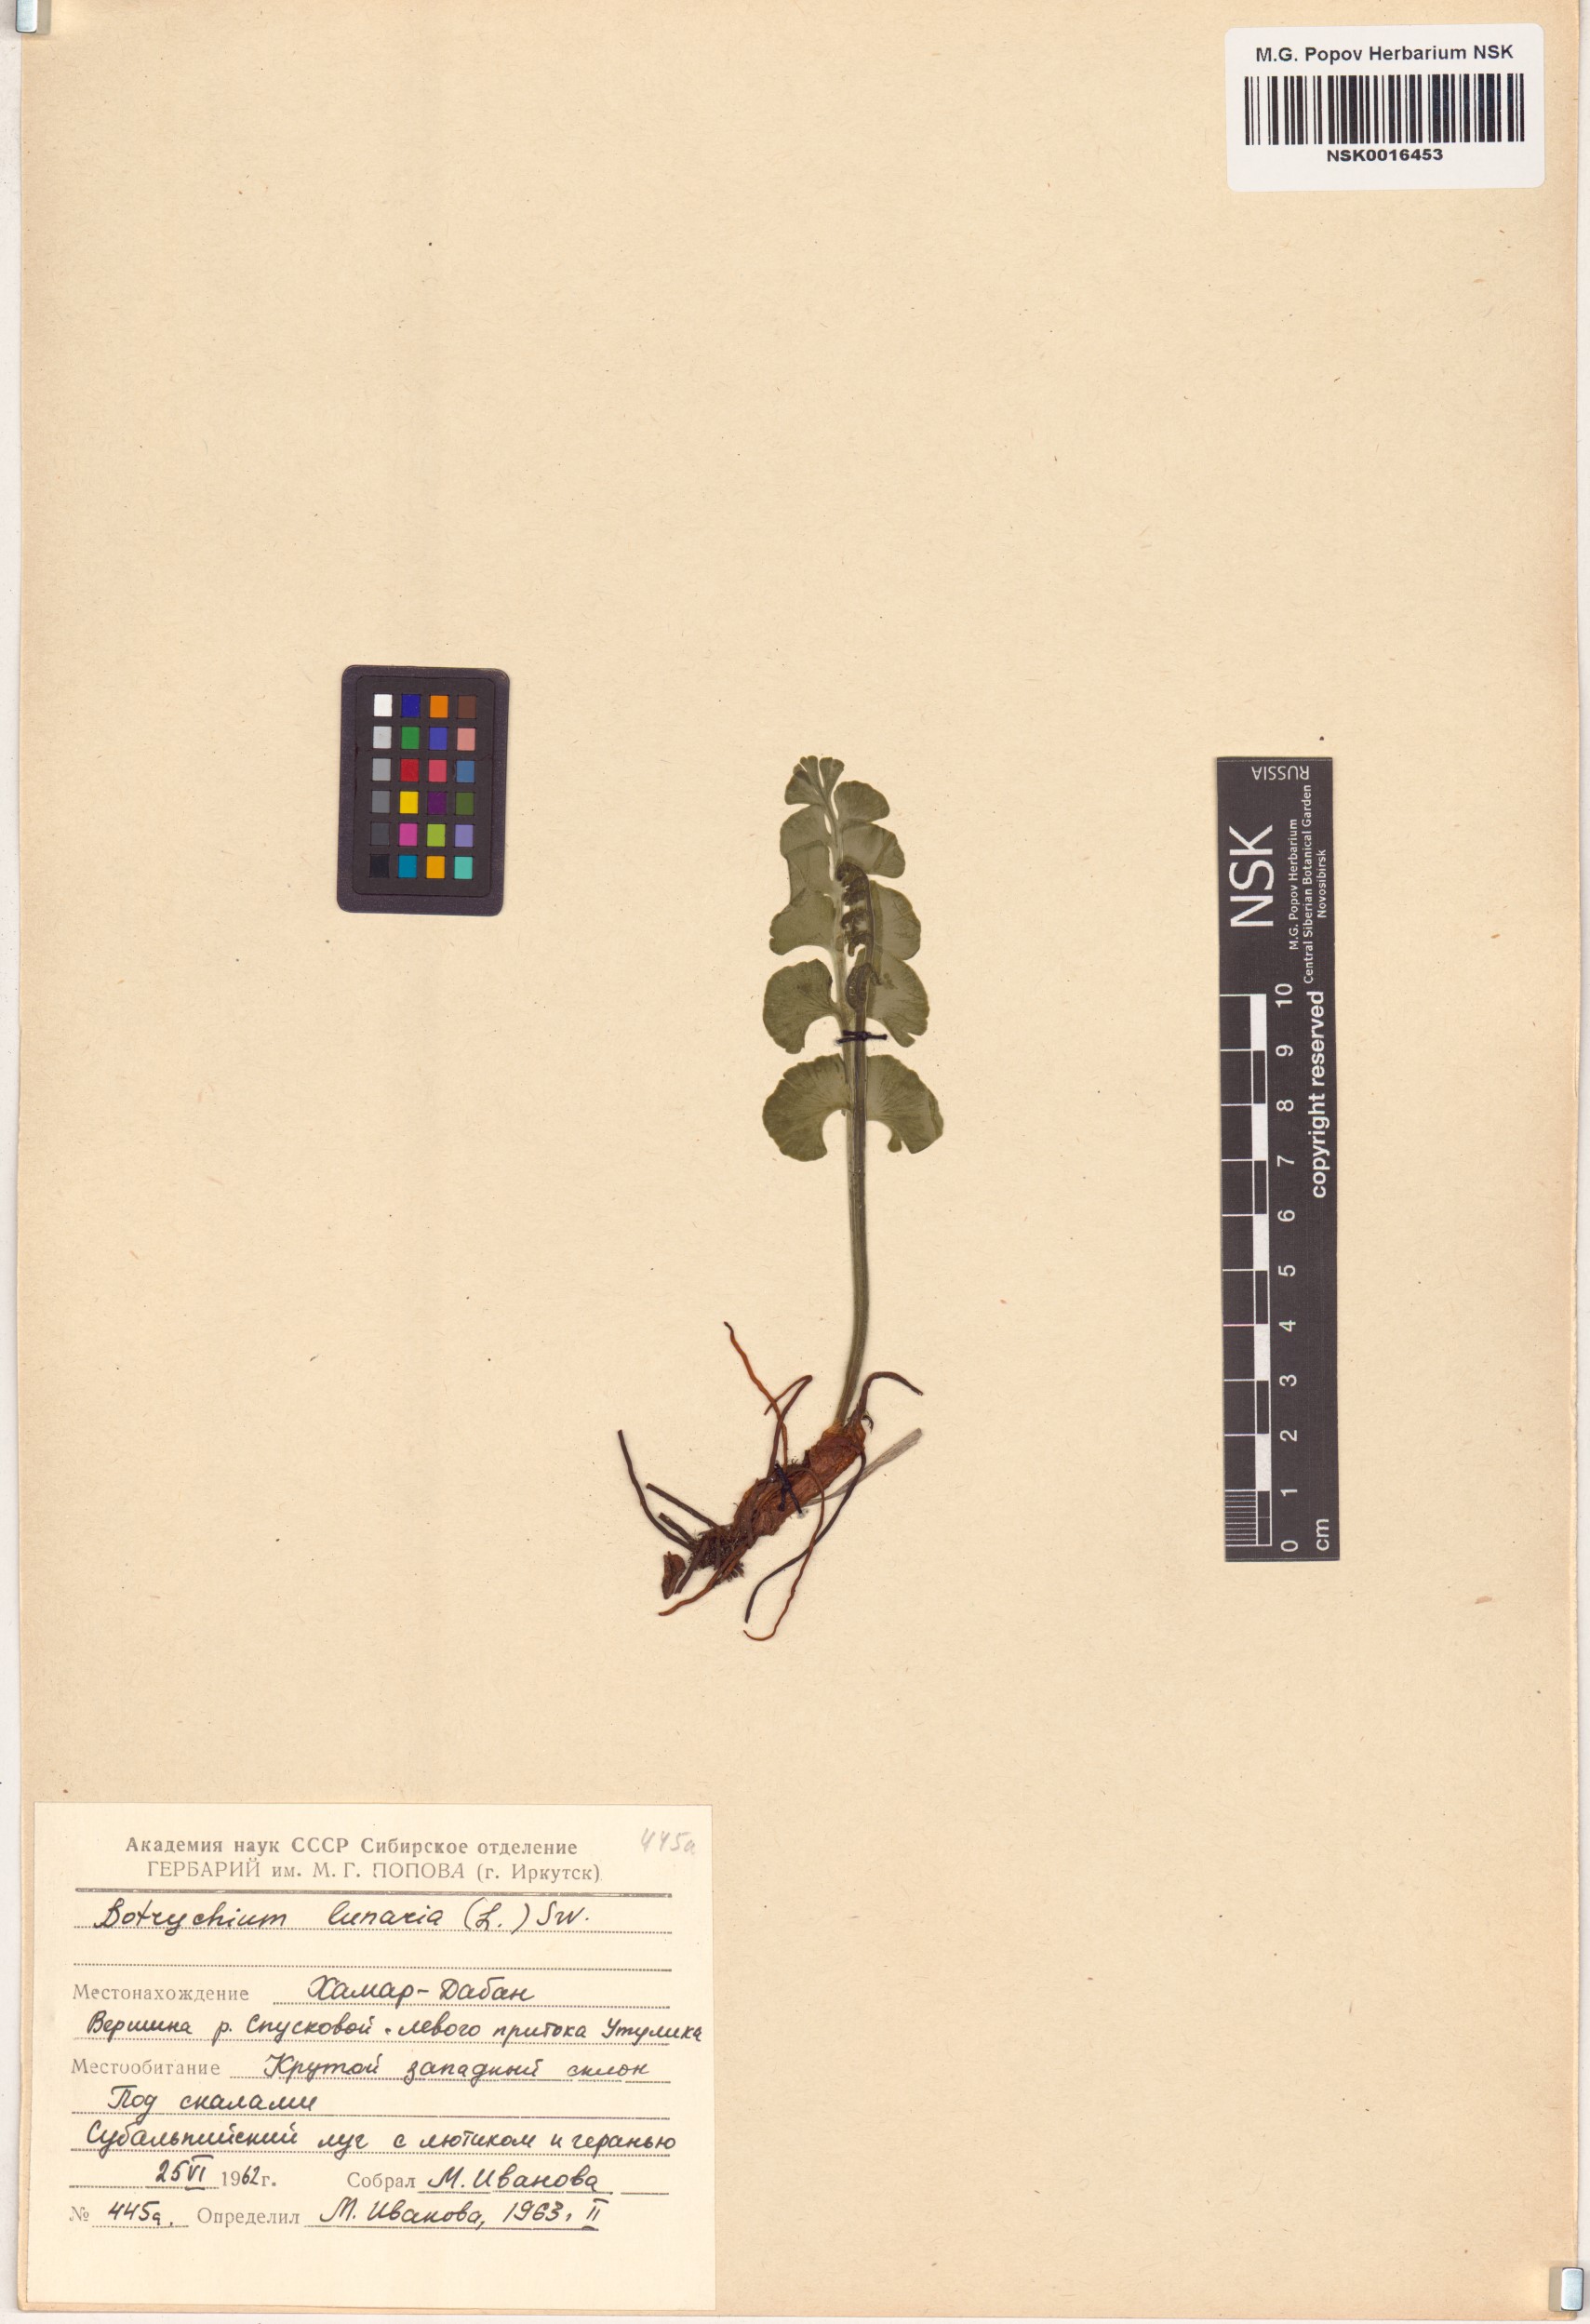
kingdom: Plantae
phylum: Tracheophyta
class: Polypodiopsida
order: Ophioglossales
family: Ophioglossaceae
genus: Botrychium
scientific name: Botrychium lunaria
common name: Moonwort
